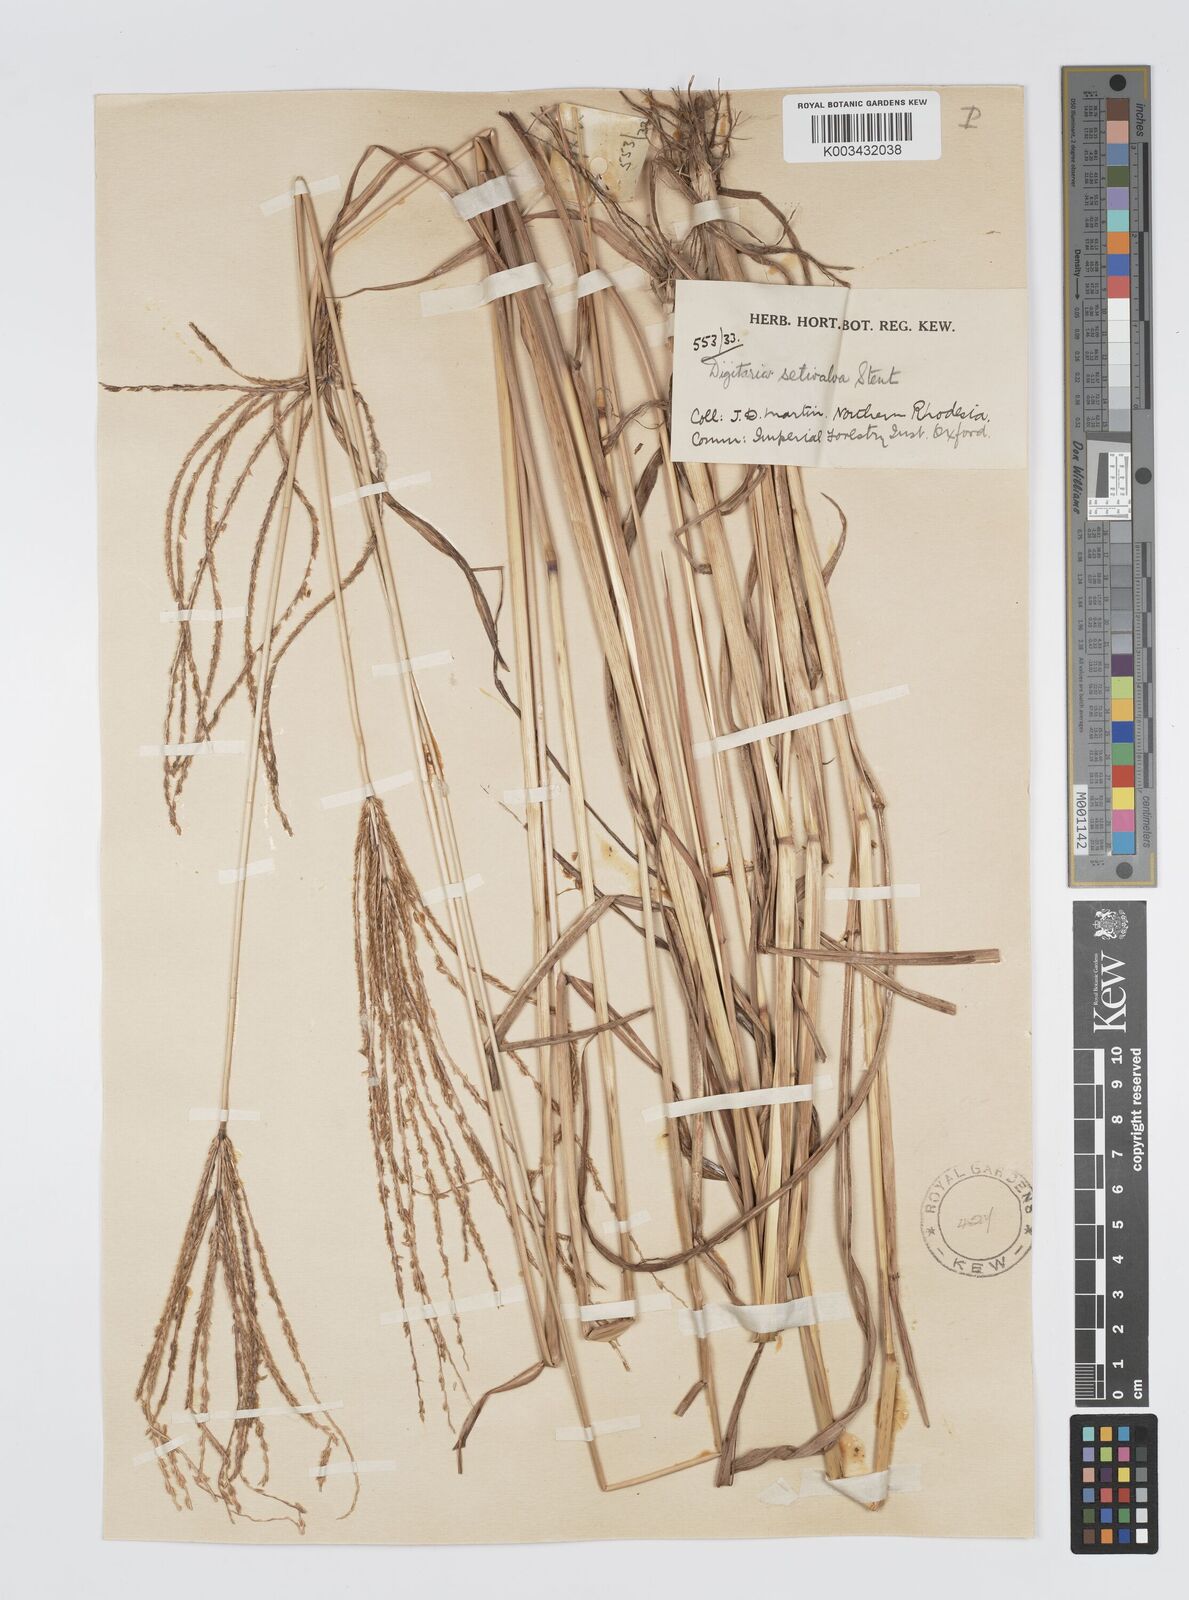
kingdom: Plantae
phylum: Tracheophyta
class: Liliopsida
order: Poales
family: Poaceae
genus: Digitaria
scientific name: Digitaria milanjiana
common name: Madagascar crabgrass
